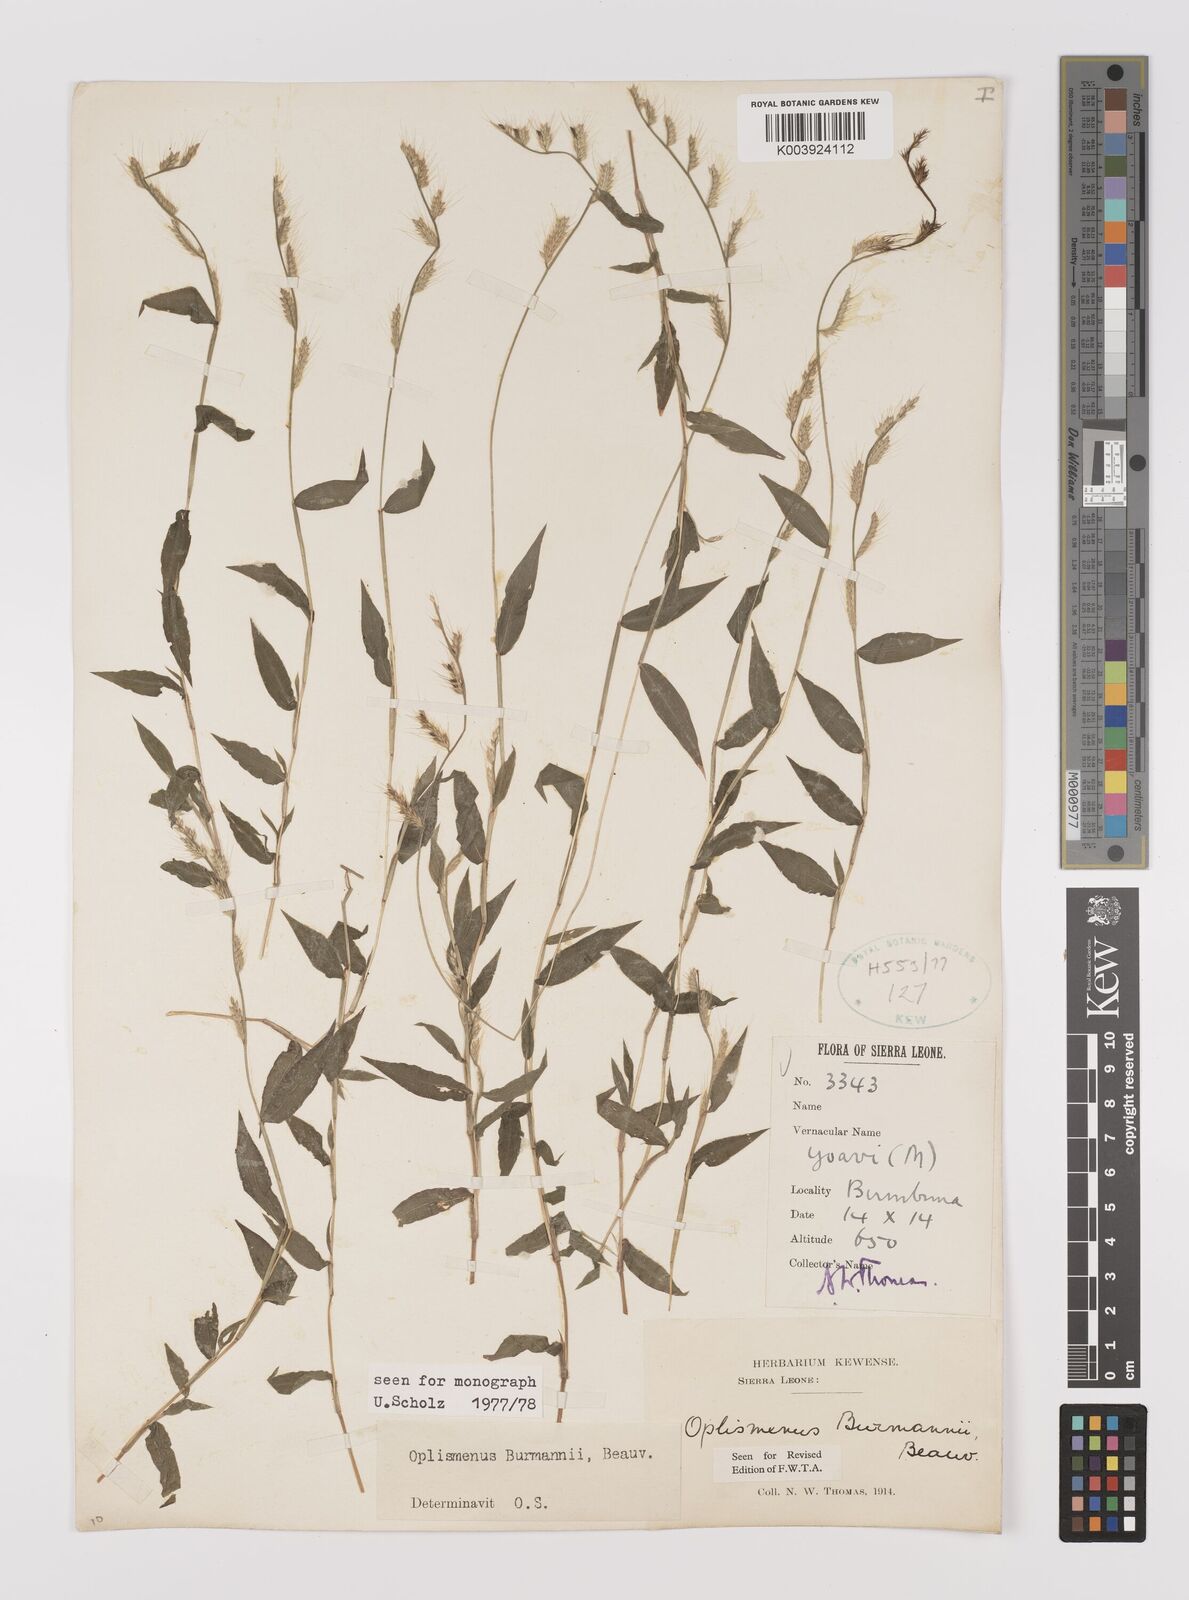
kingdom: Plantae
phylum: Tracheophyta
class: Liliopsida
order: Poales
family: Poaceae
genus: Oplismenus
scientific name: Oplismenus burmanni
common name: Burmann's basketgrass
